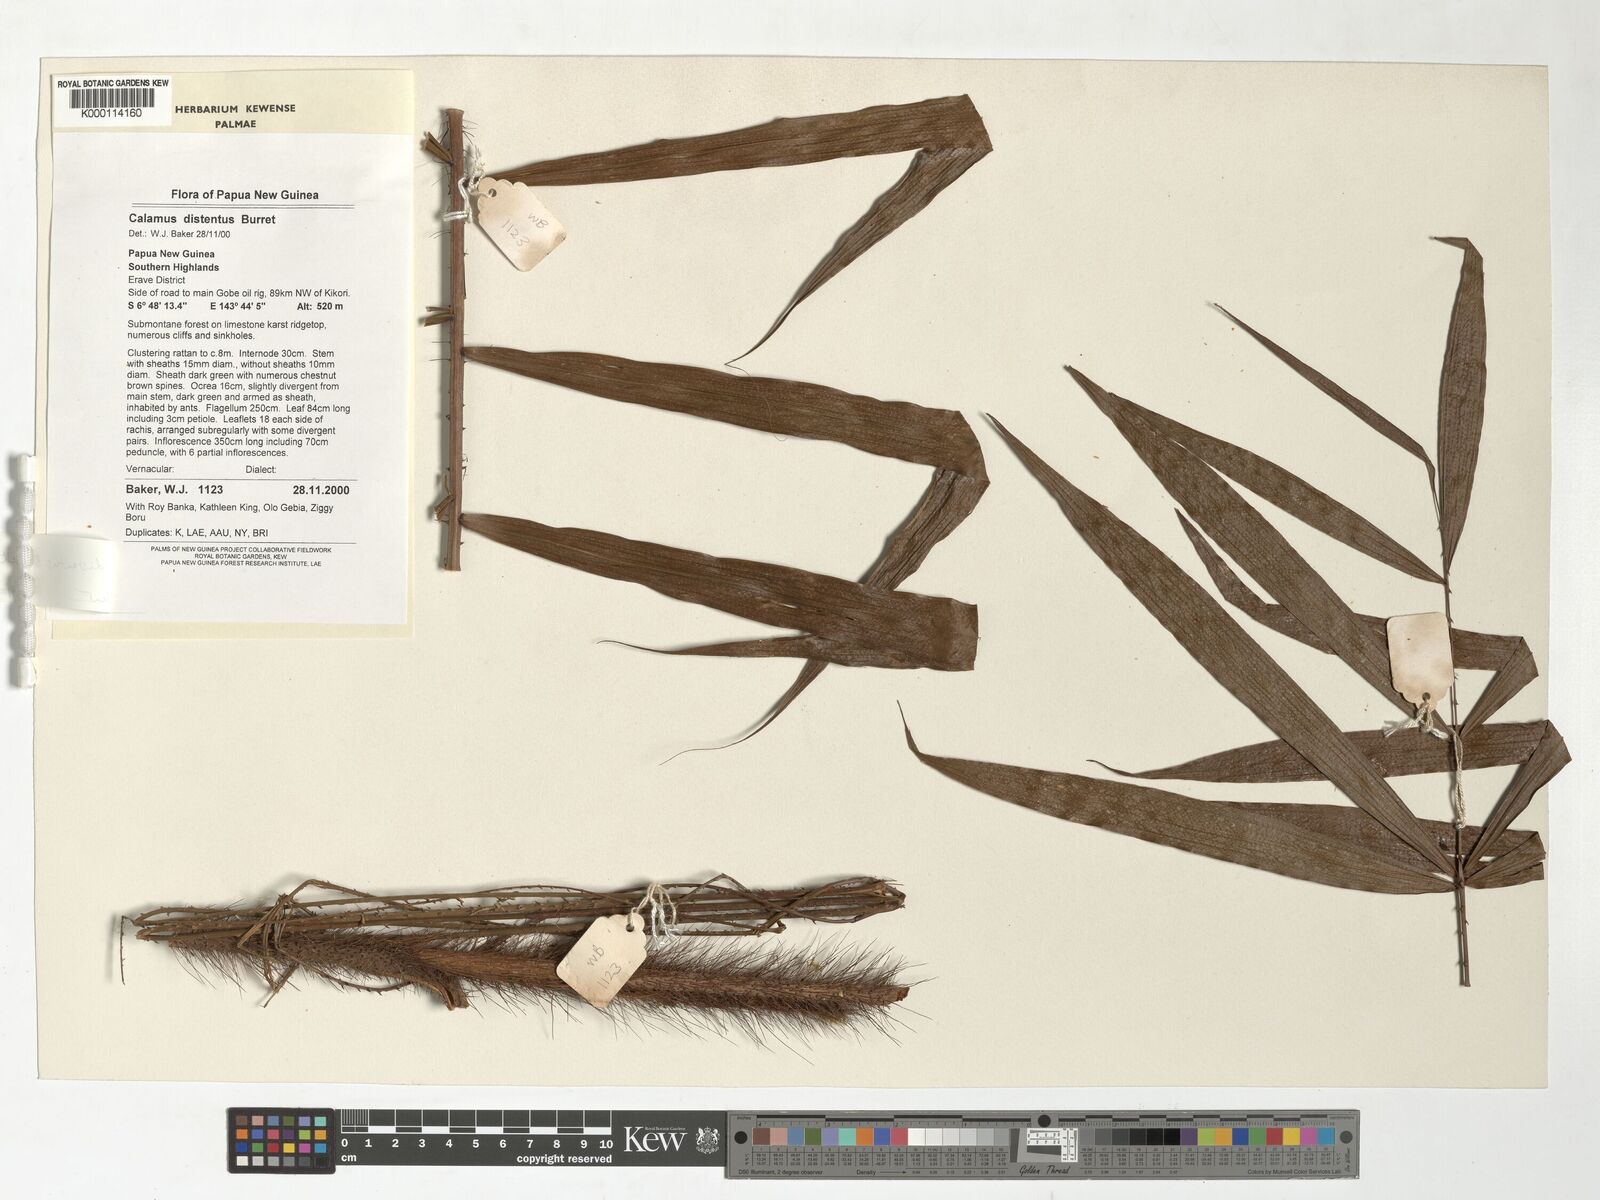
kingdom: Plantae
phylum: Tracheophyta
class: Liliopsida
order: Arecales
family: Arecaceae
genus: Calamus
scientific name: Calamus distentus
